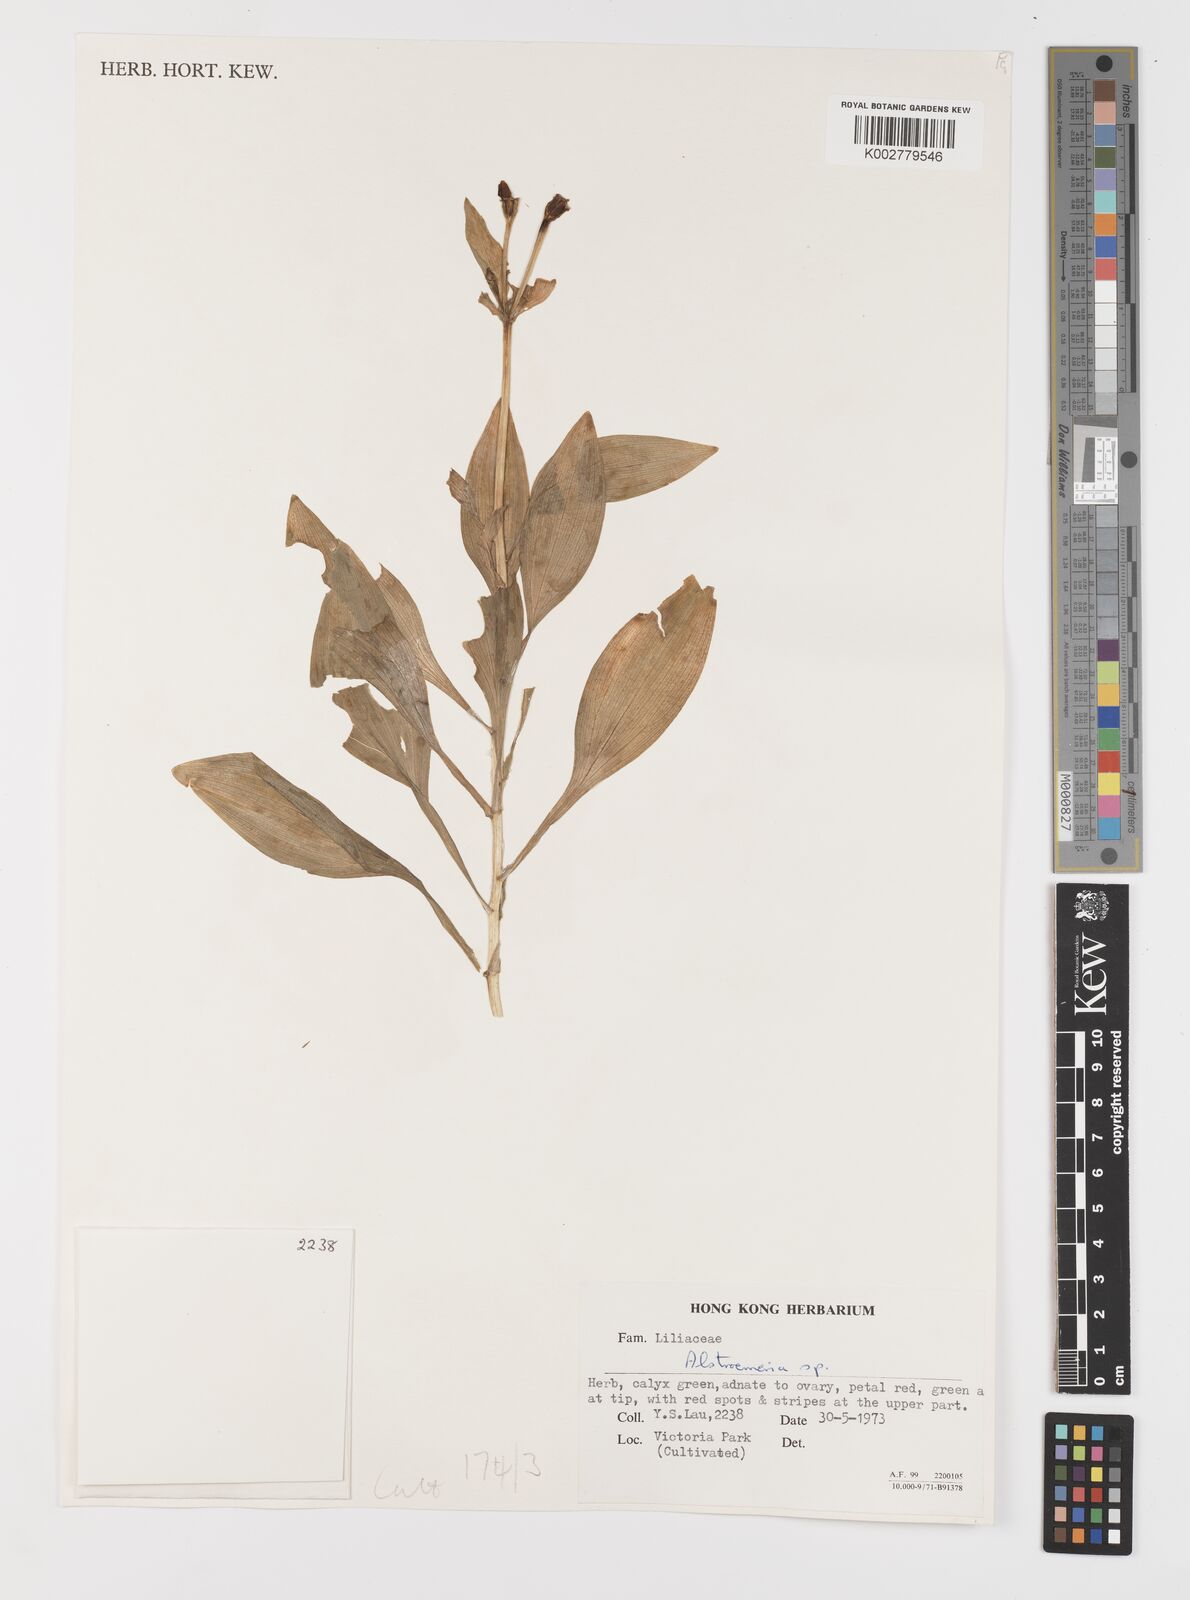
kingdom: Plantae
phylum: Tracheophyta
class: Liliopsida
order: Liliales
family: Alstroemeriaceae
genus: Alstroemeria
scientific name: Alstroemeria
